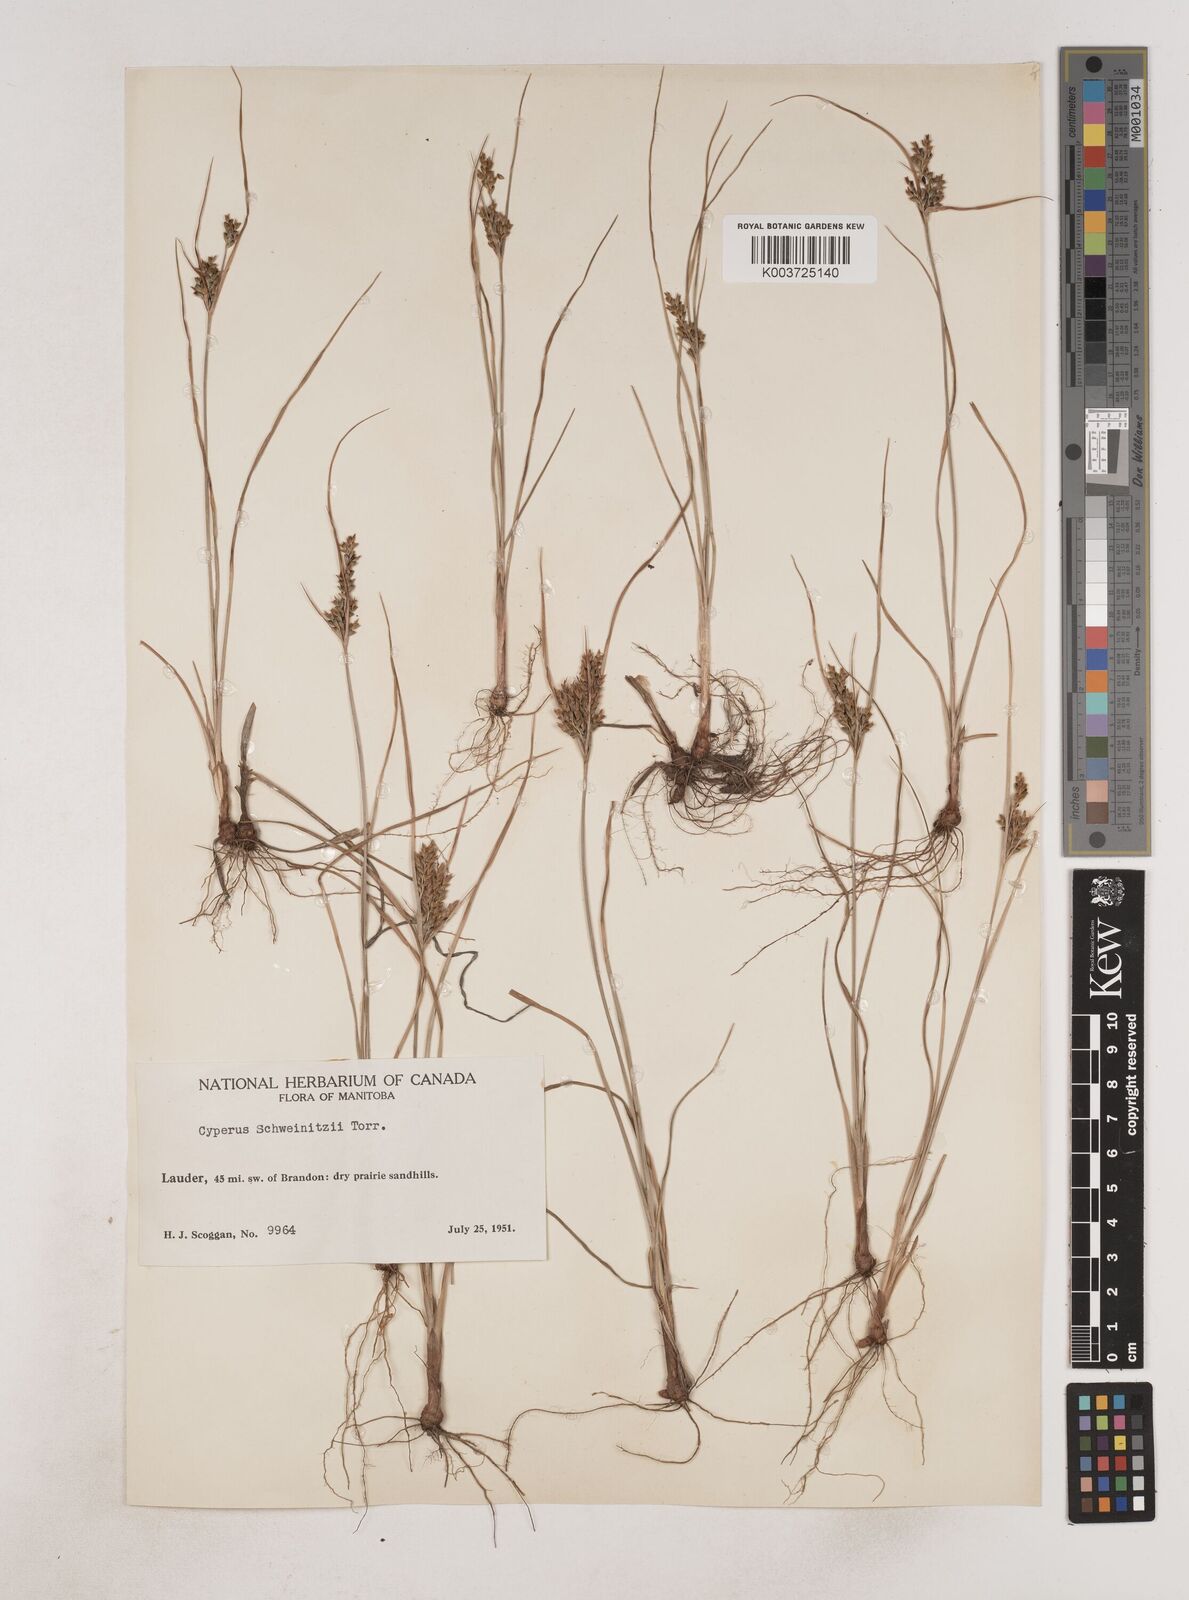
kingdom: Plantae
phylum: Tracheophyta
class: Liliopsida
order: Poales
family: Cyperaceae
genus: Cyperus
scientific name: Cyperus schweinitzii
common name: Schweinitz's cyperus
